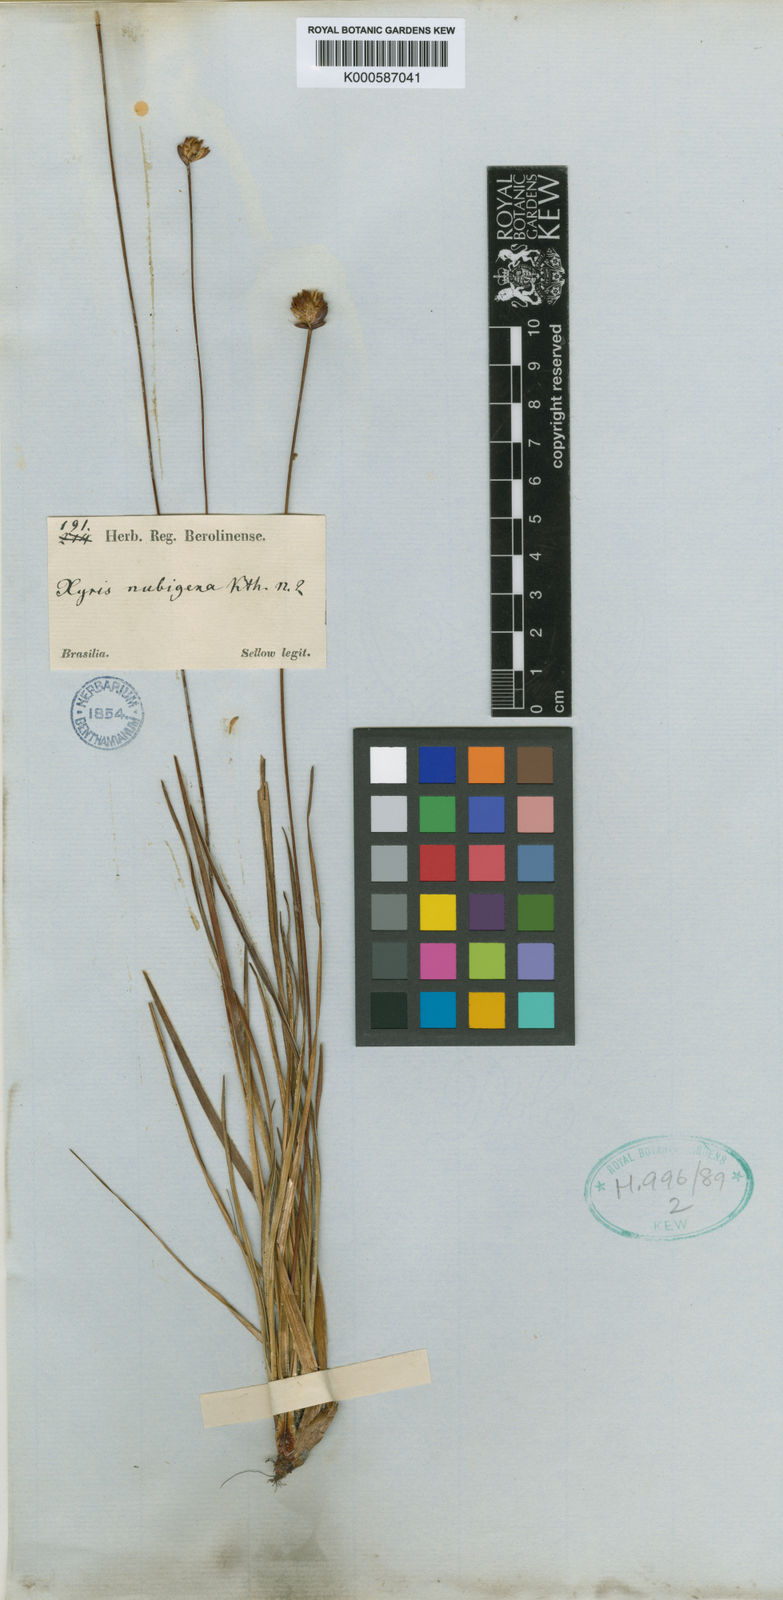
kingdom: Plantae
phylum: Tracheophyta
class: Liliopsida
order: Poales
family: Xyridaceae
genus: Xyris
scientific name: Xyris nubigena
